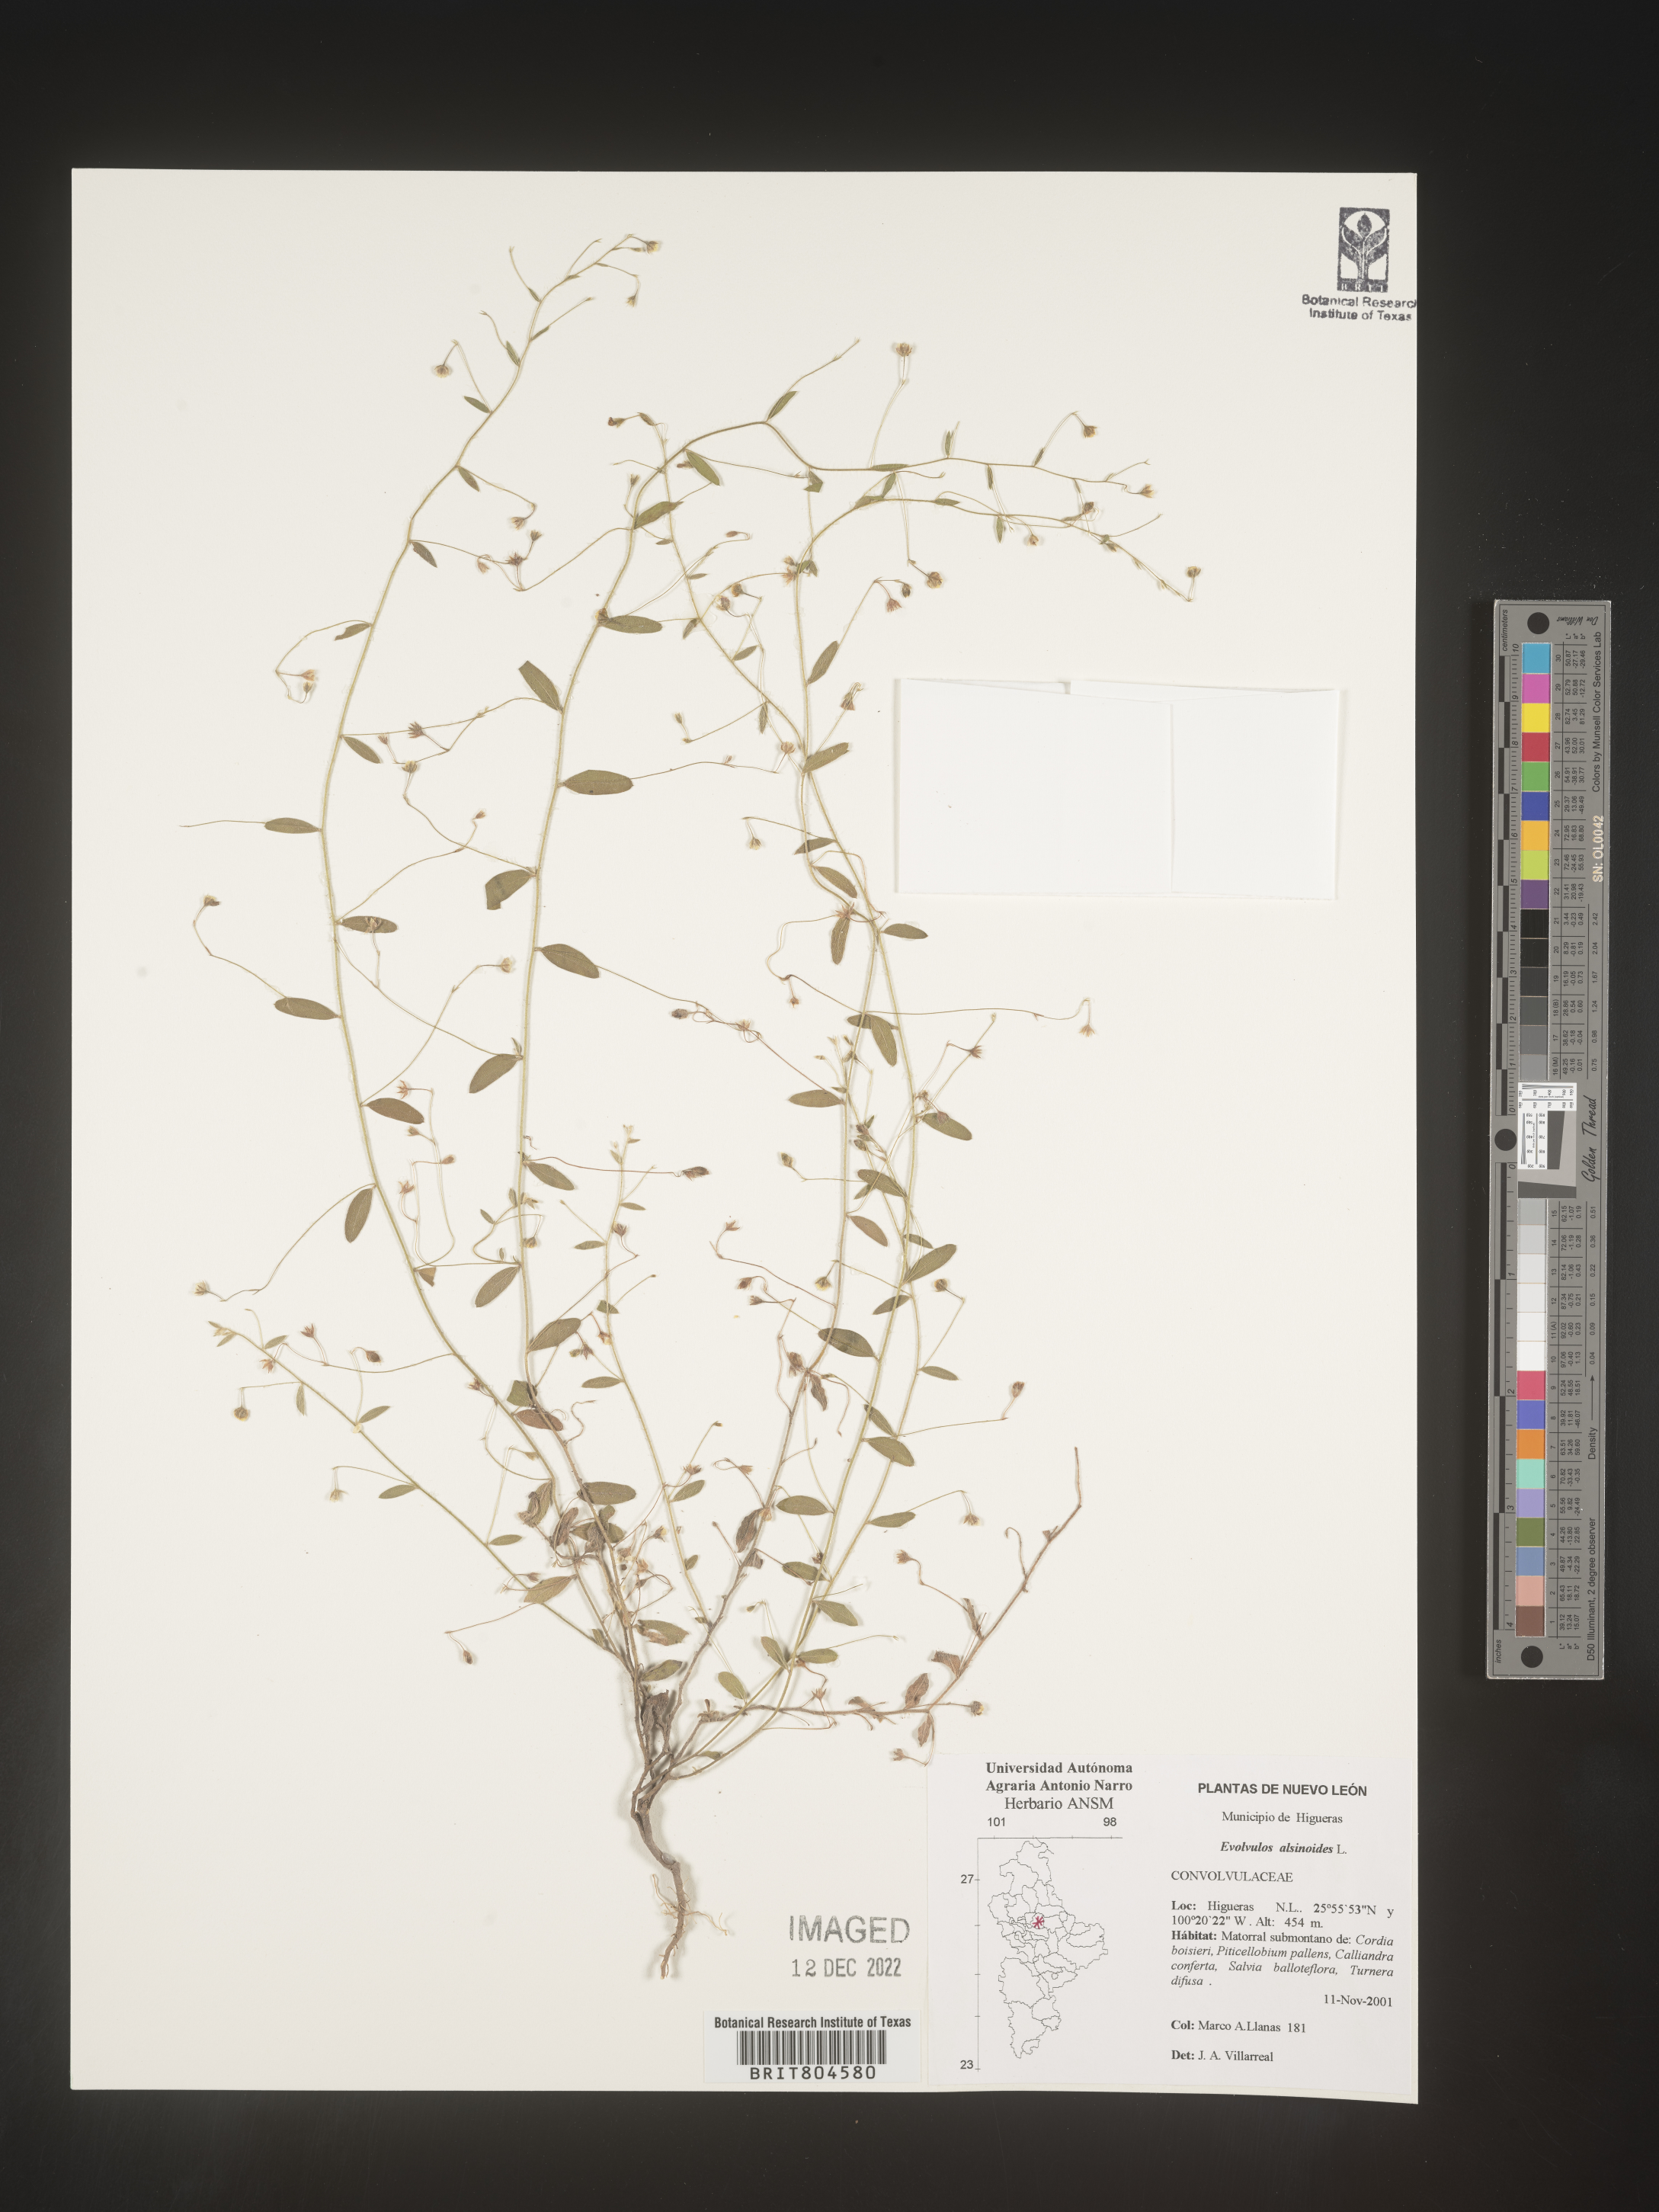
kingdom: Plantae
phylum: Tracheophyta
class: Magnoliopsida
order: Solanales
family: Convolvulaceae
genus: Evolvulus
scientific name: Evolvulus
